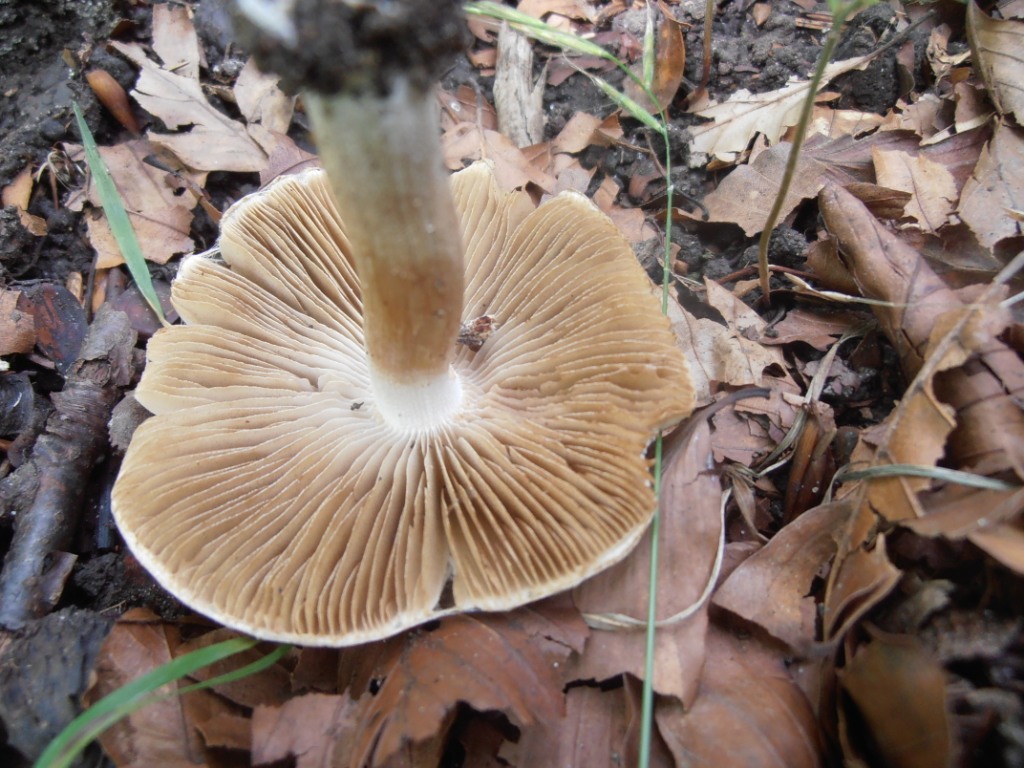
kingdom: Fungi
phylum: Basidiomycota
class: Agaricomycetes
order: Agaricales
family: Inocybaceae
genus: Inocybe
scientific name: Inocybe corydalina
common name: grønpuklet trævlhat
